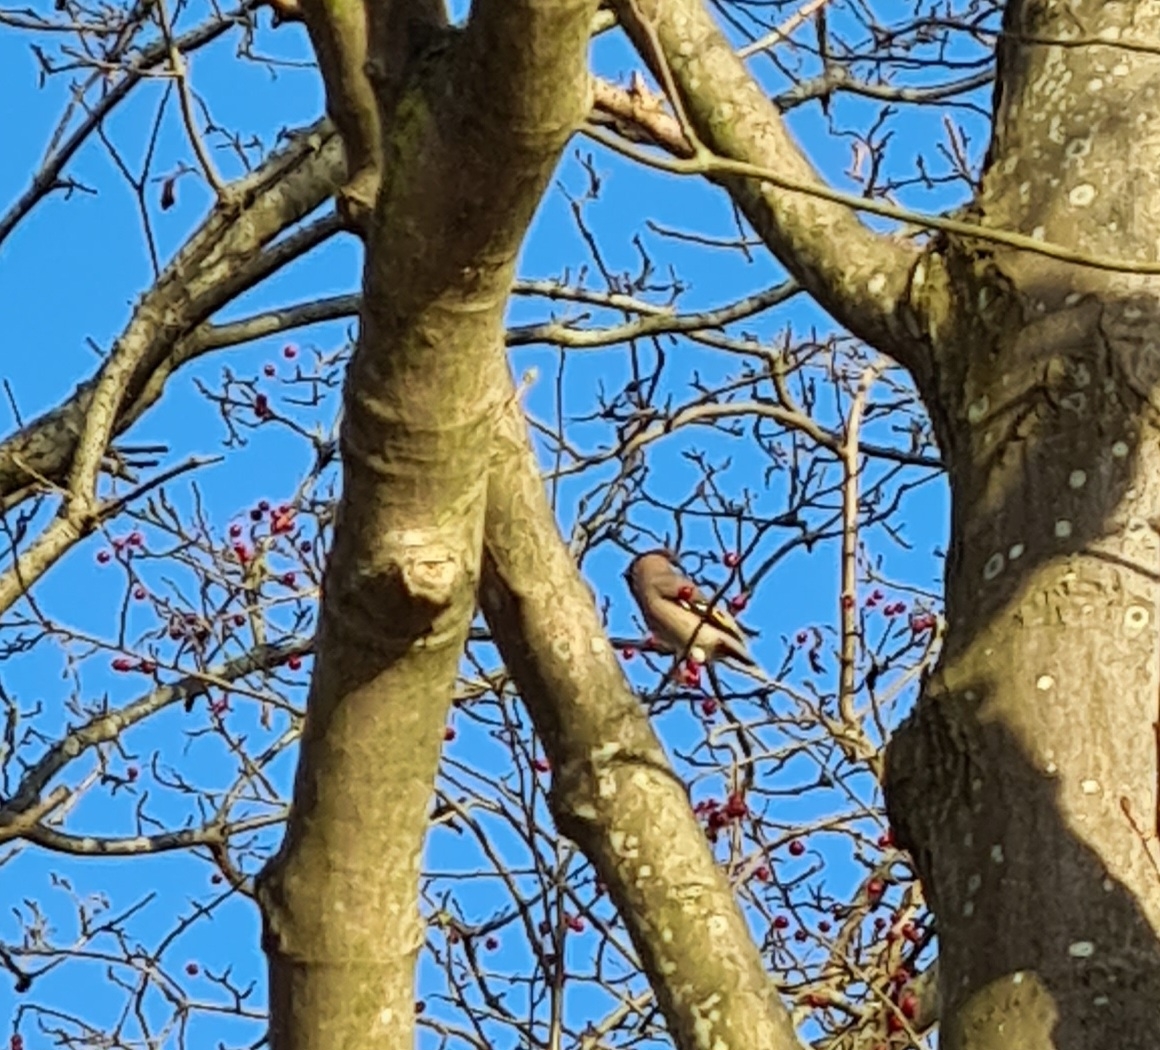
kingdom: Animalia
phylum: Chordata
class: Aves
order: Passeriformes
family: Bombycillidae
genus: Bombycilla
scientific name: Bombycilla garrulus
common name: Silkehale
